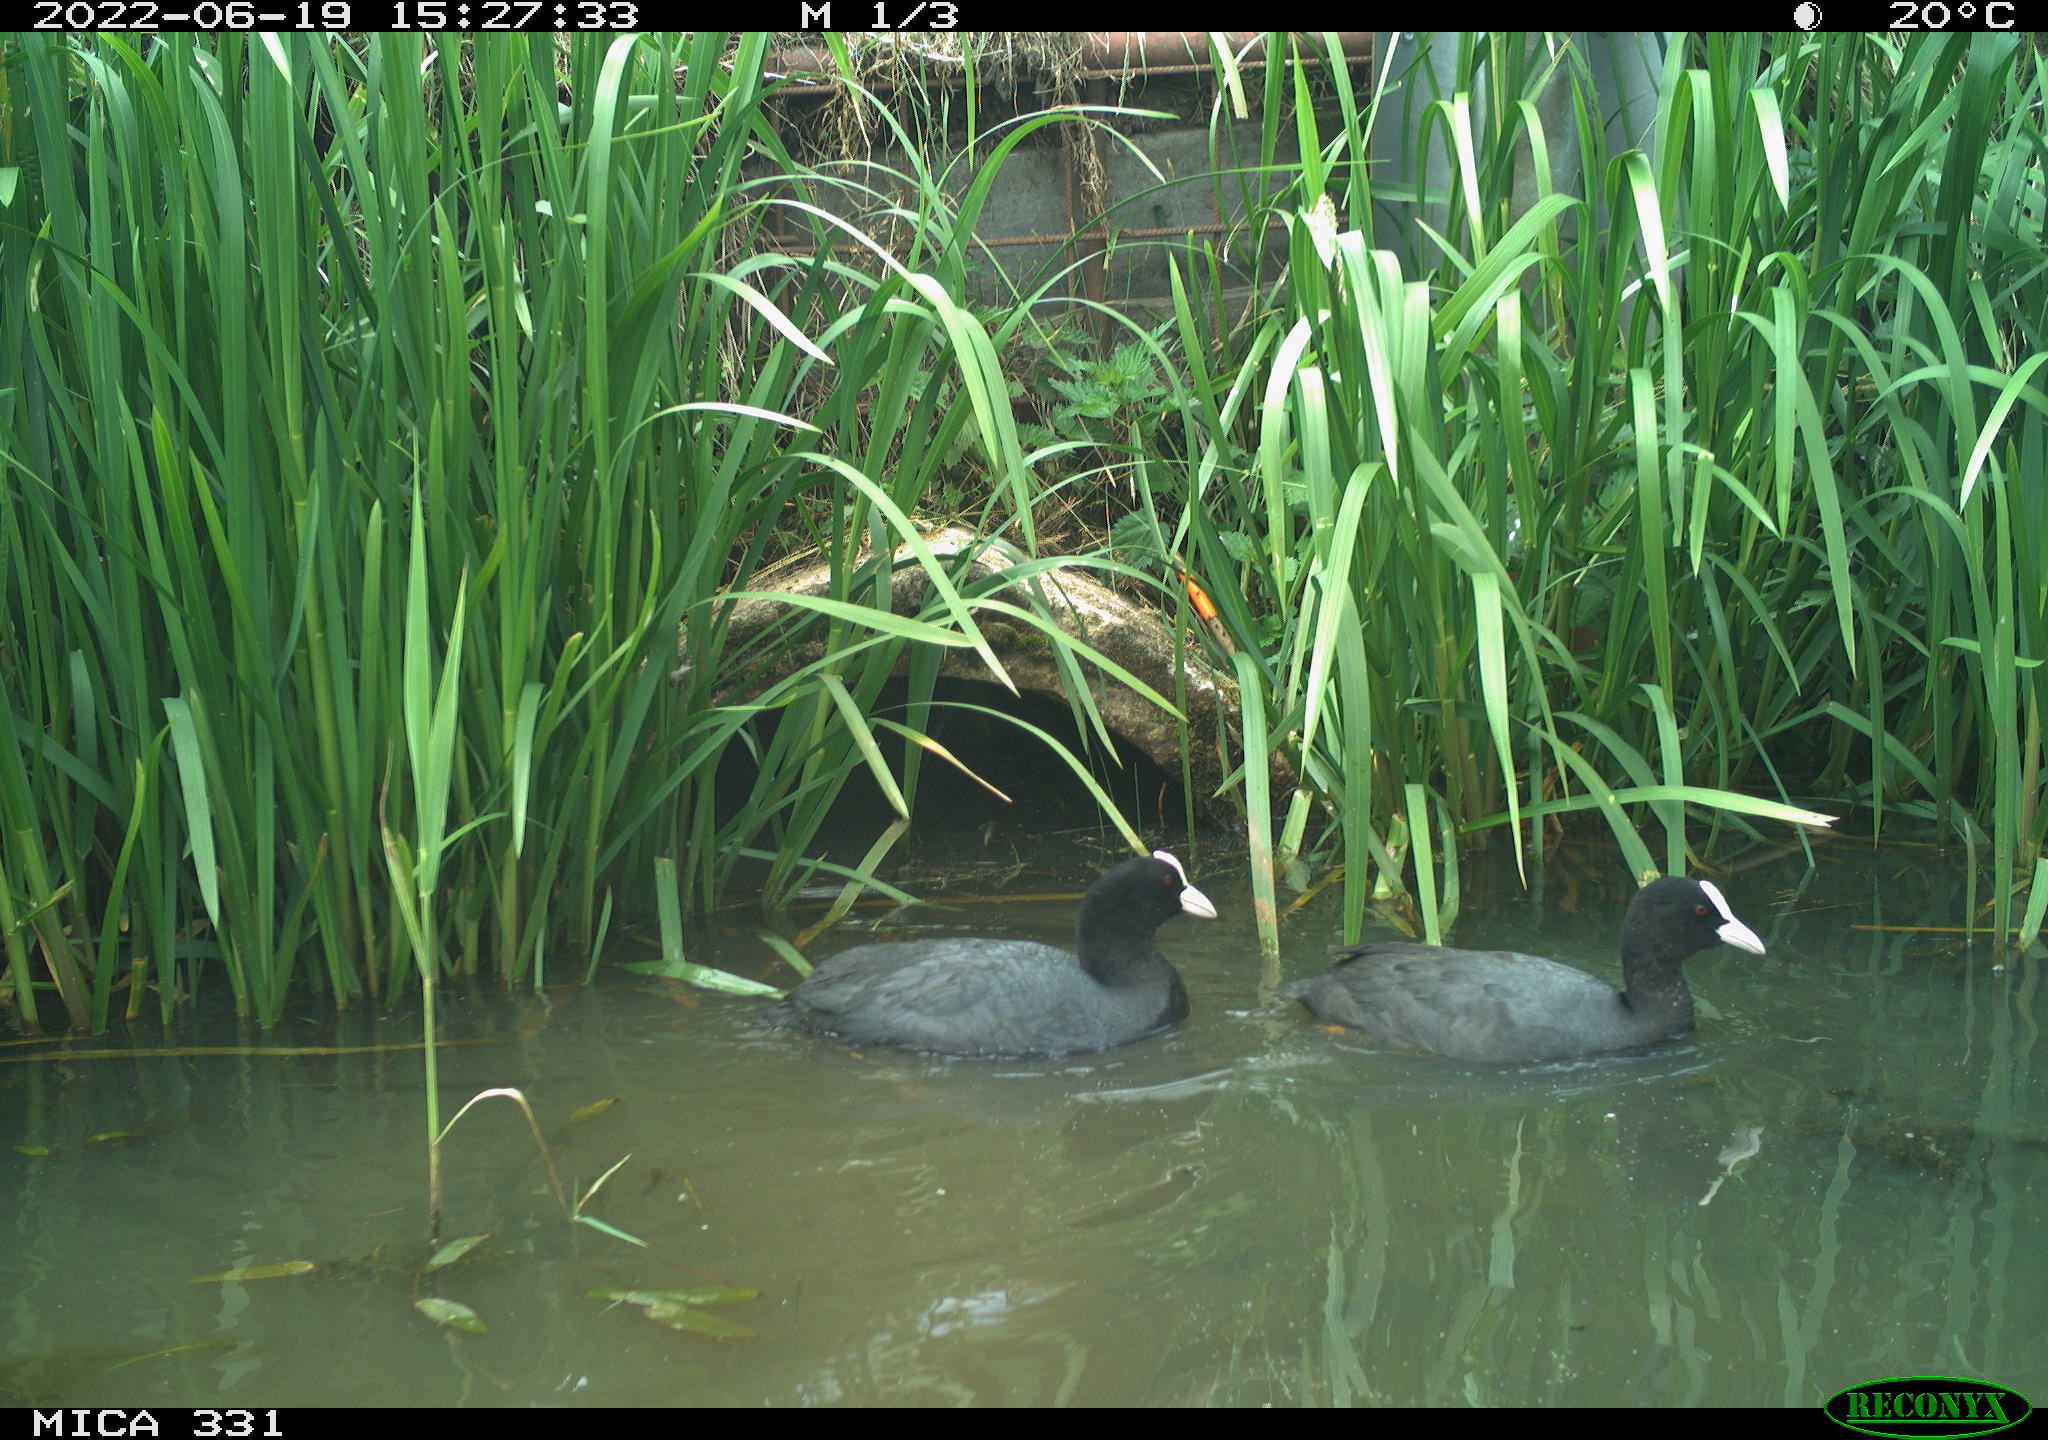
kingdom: Animalia
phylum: Chordata
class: Aves
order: Gruiformes
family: Rallidae
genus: Fulica
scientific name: Fulica atra
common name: Eurasian coot
